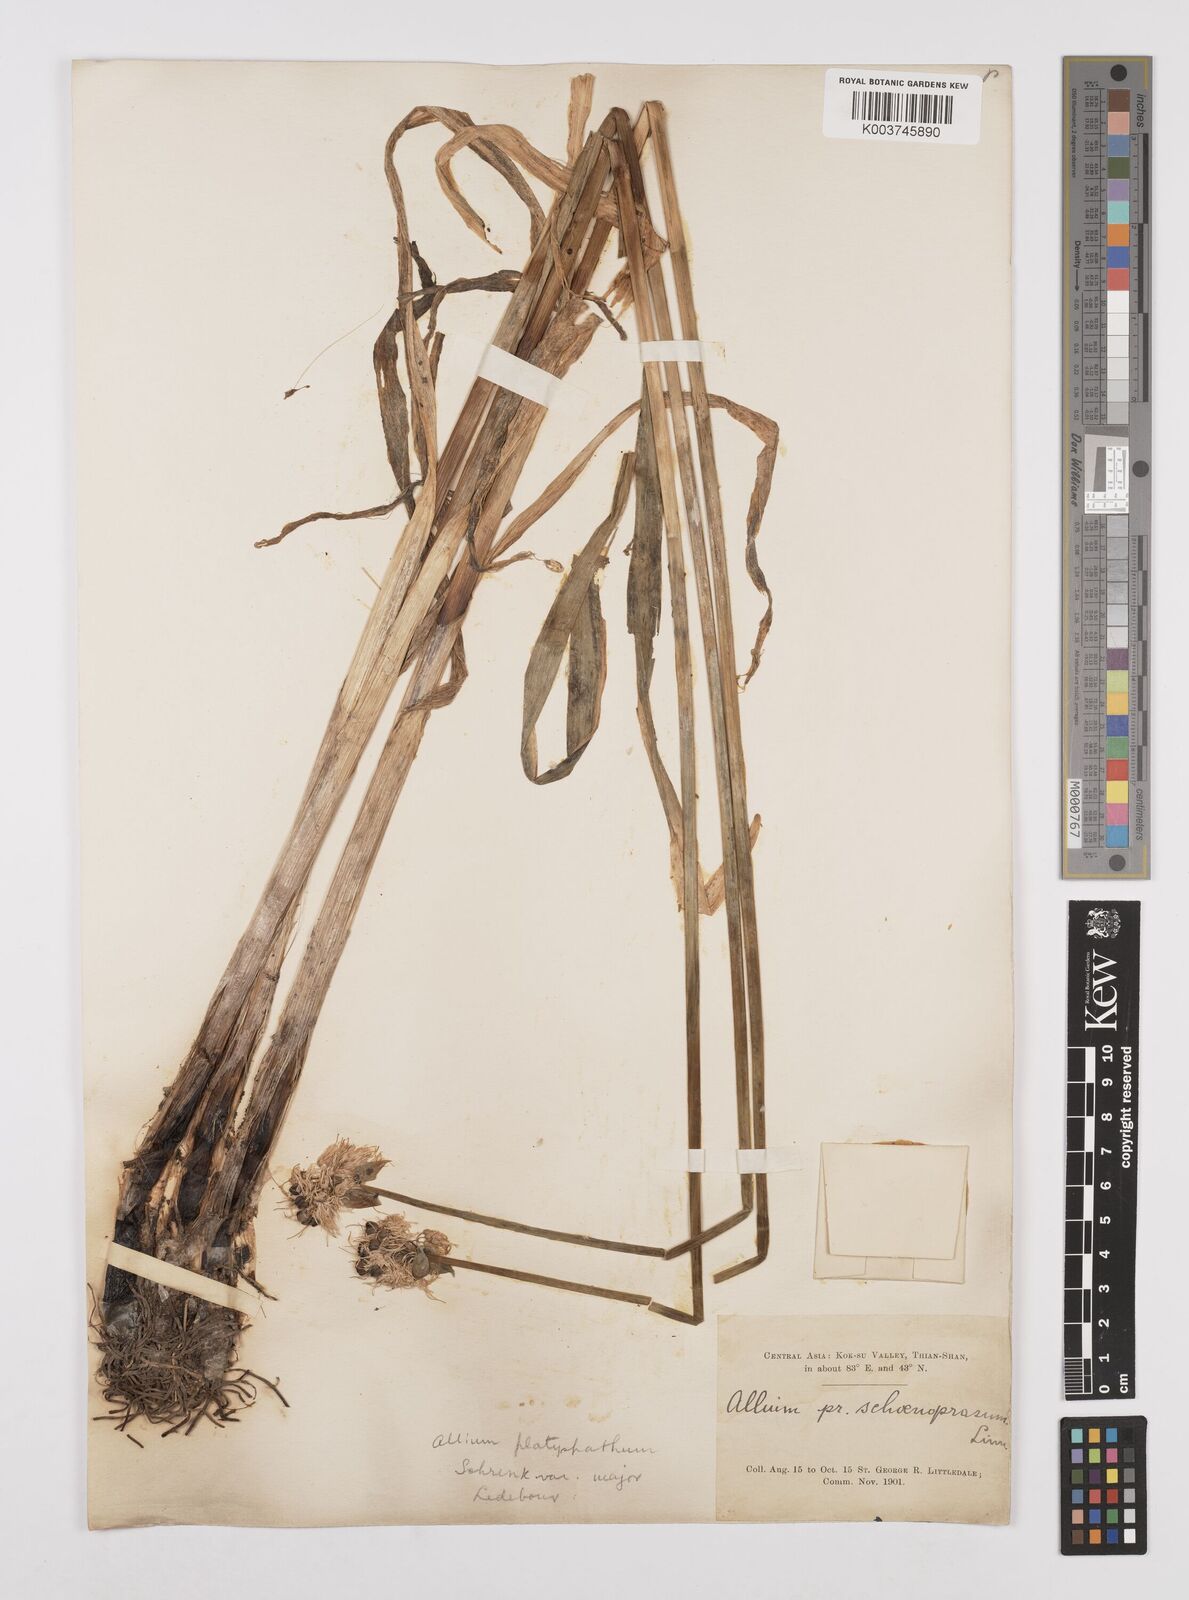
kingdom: Plantae
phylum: Tracheophyta
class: Liliopsida
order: Asparagales
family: Amaryllidaceae
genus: Allium
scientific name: Allium platyspathum
